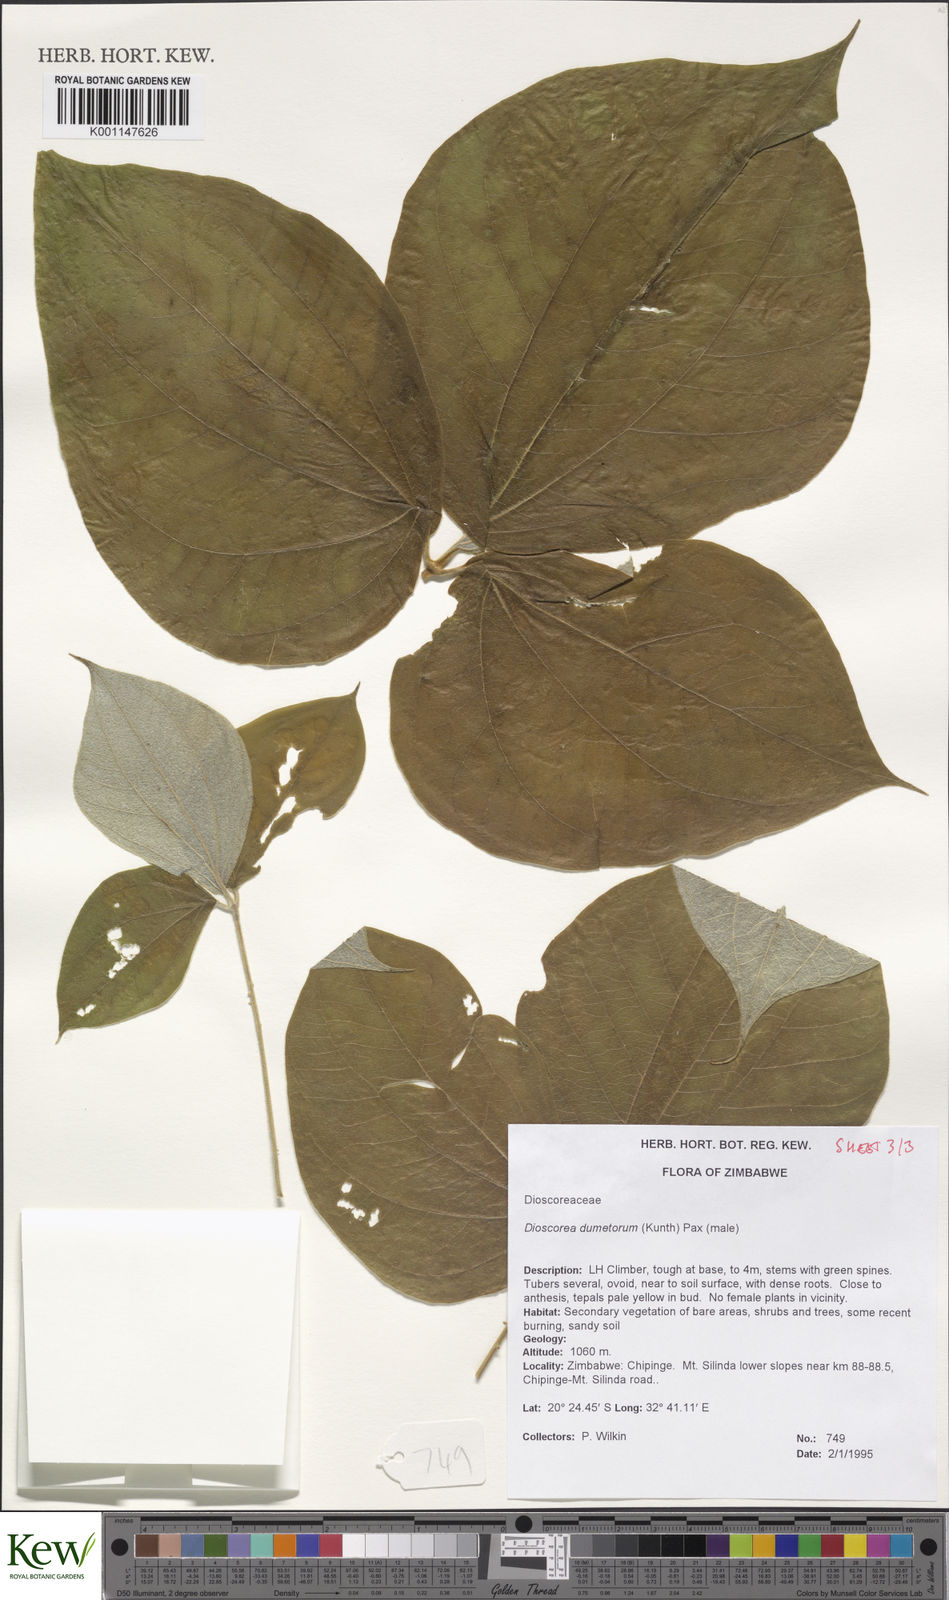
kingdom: Plantae
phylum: Tracheophyta
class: Liliopsida
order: Dioscoreales
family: Dioscoreaceae
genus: Dioscorea
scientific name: Dioscorea dumetorum
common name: African bitter yam
